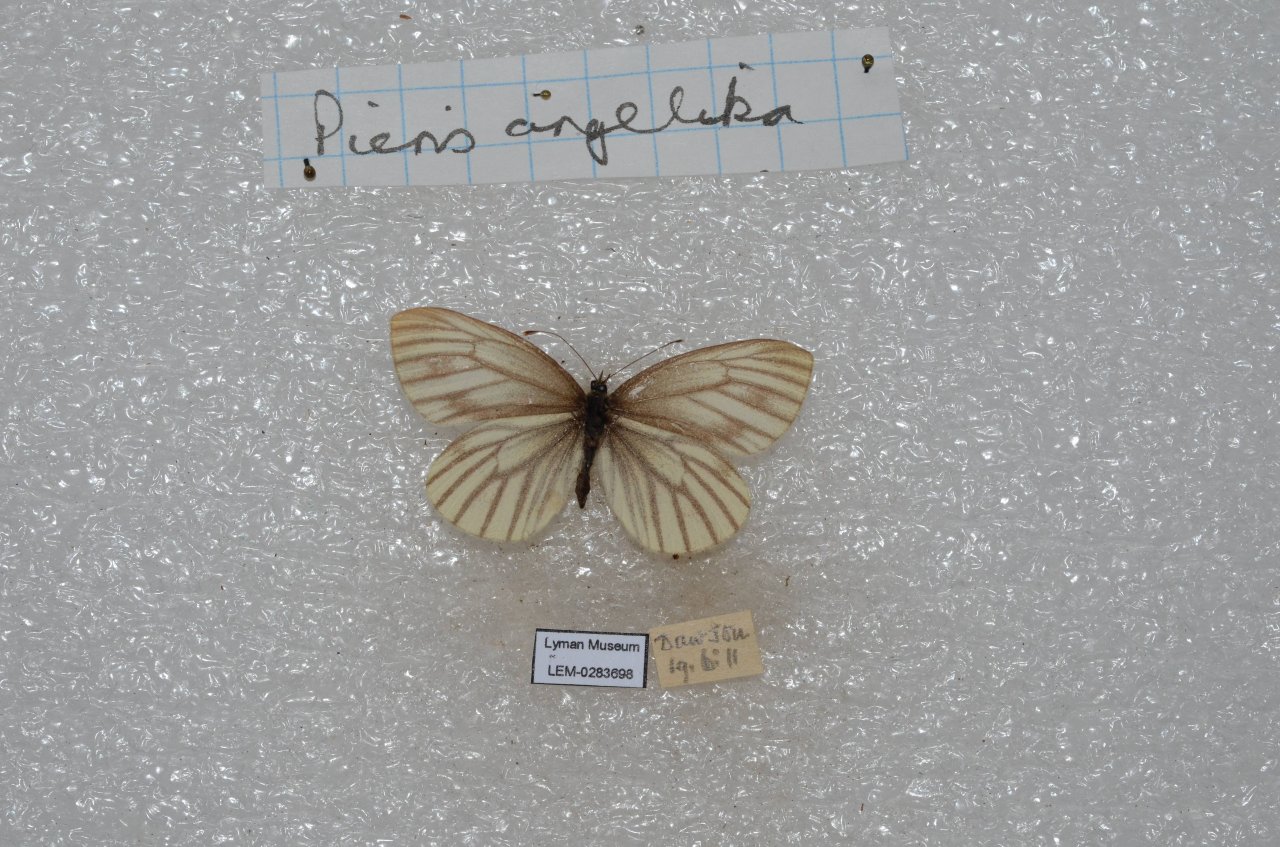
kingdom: Animalia
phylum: Arthropoda
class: Insecta
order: Lepidoptera
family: Pieridae
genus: Pieris
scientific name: Pieris angelika
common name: Arctic White
